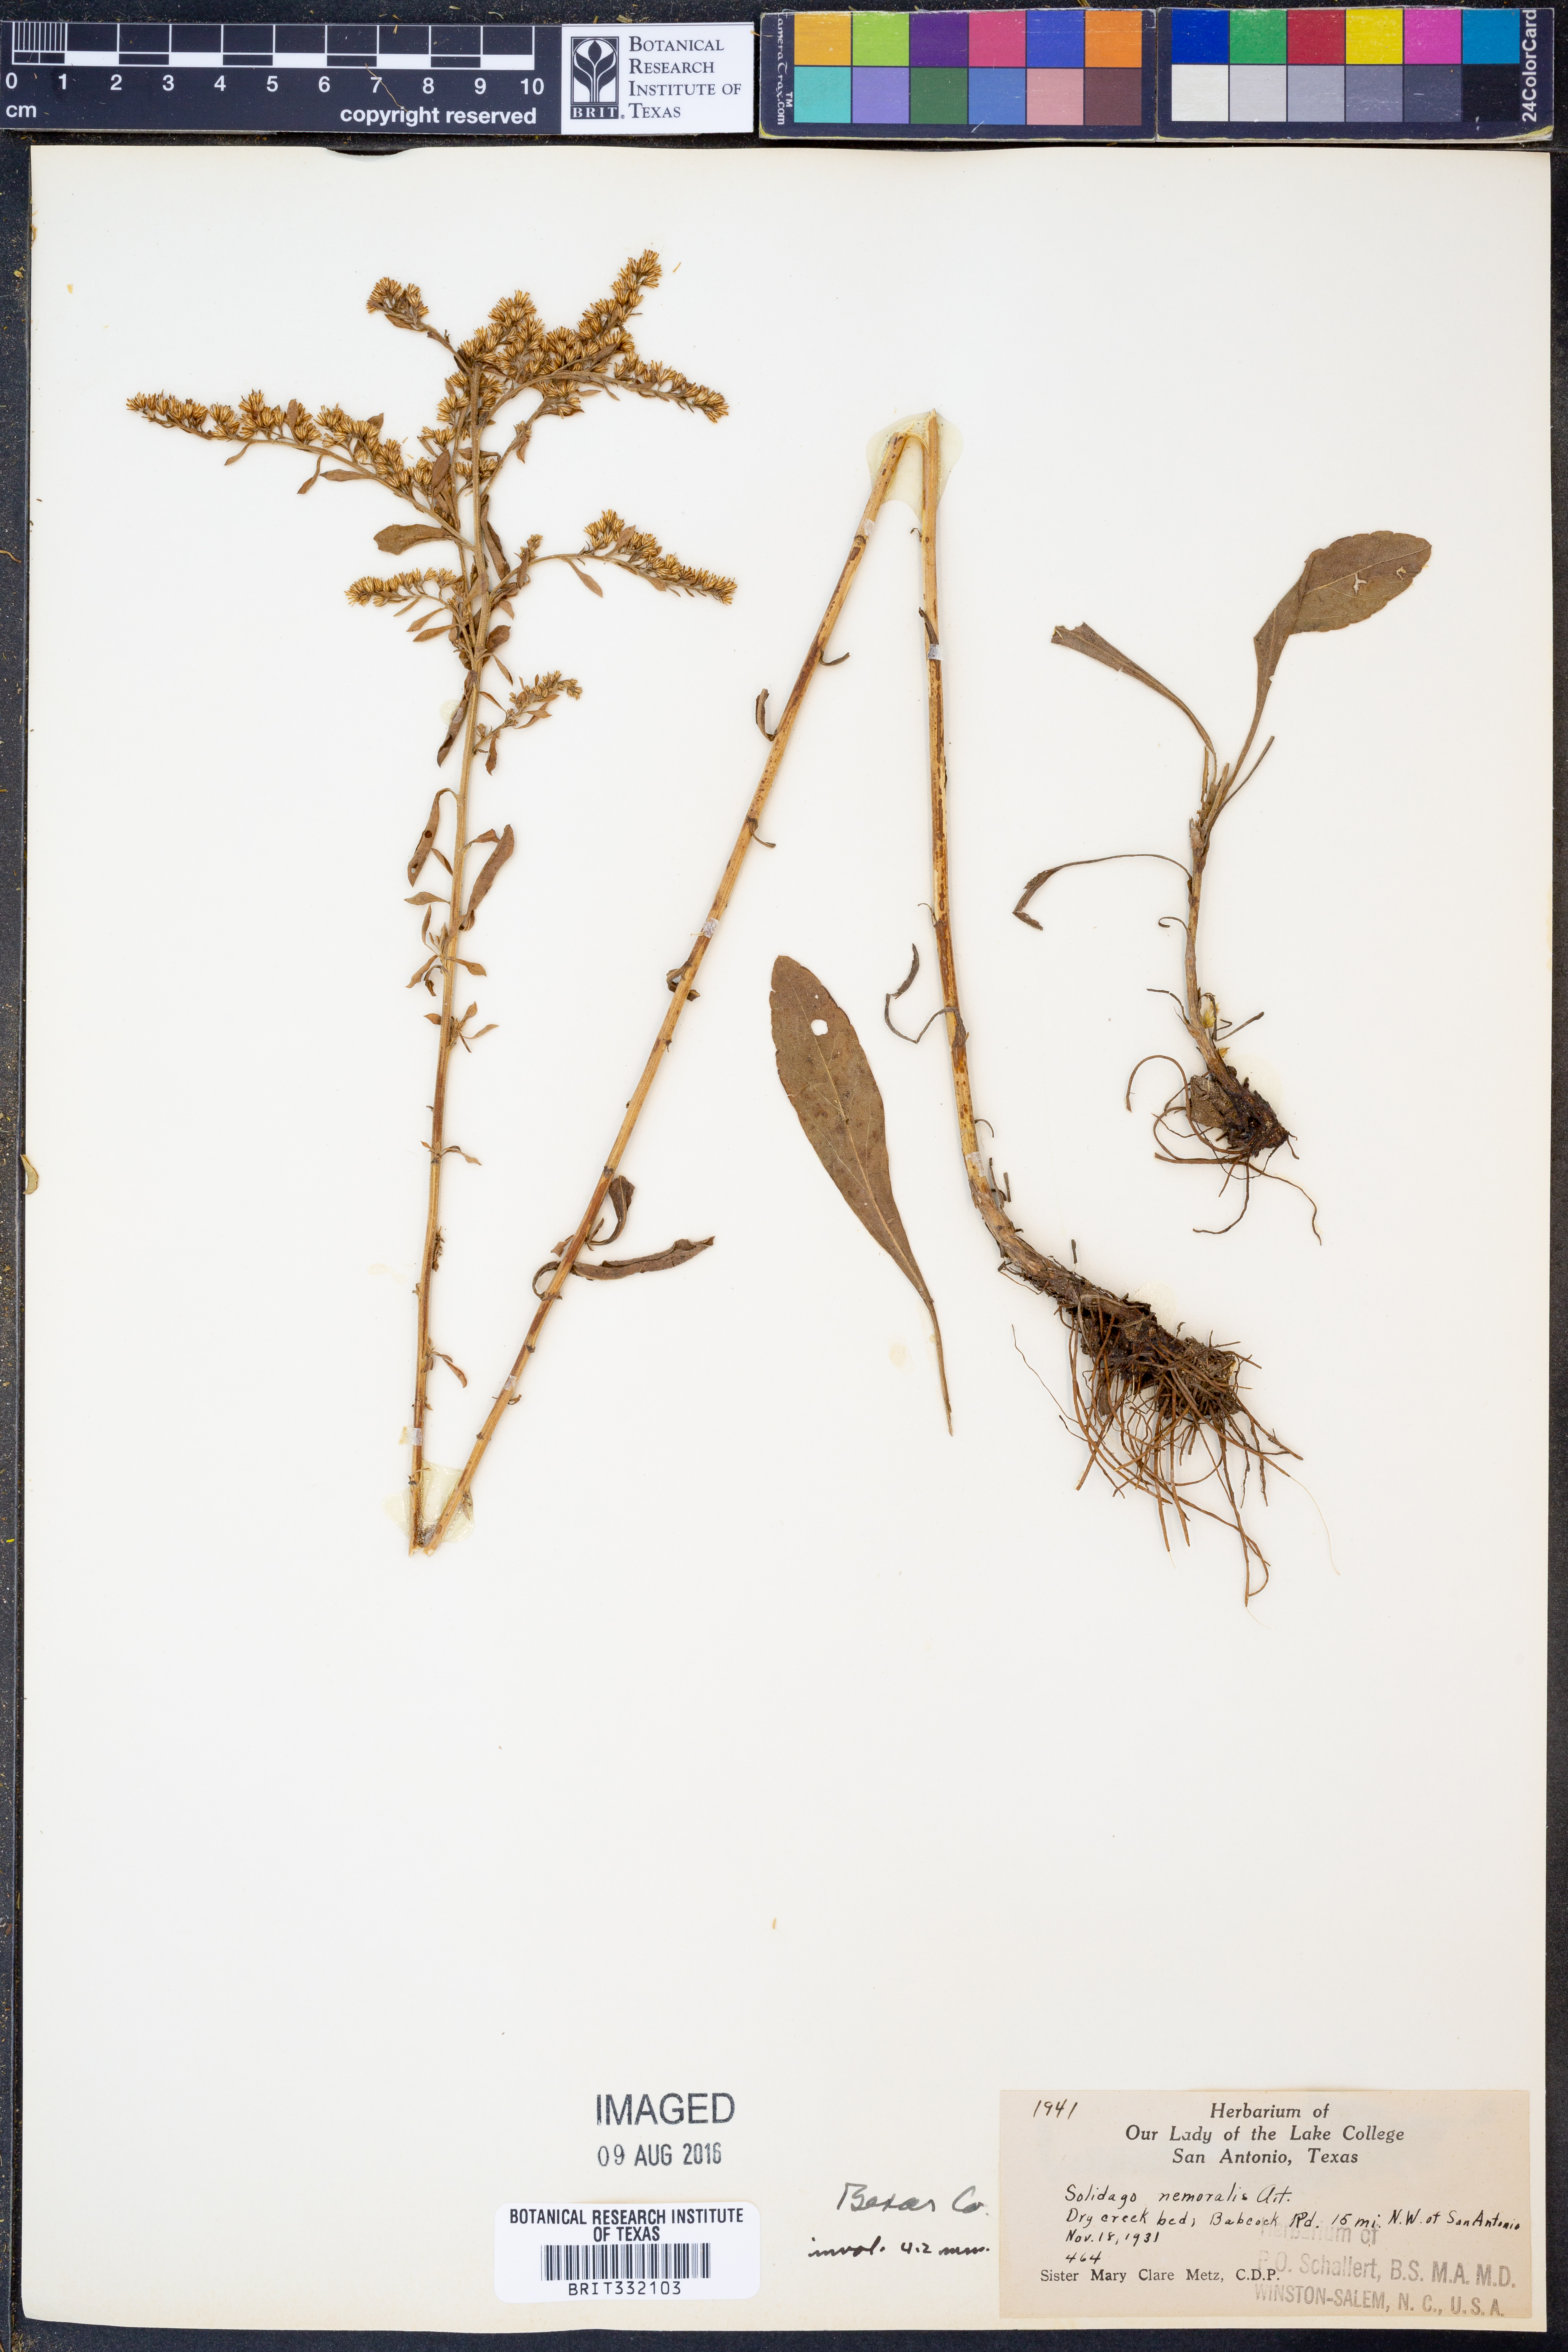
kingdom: Plantae
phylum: Tracheophyta
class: Magnoliopsida
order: Asterales
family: Asteraceae
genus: Solidago
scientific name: Solidago nemoralis
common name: Grey goldenrod
